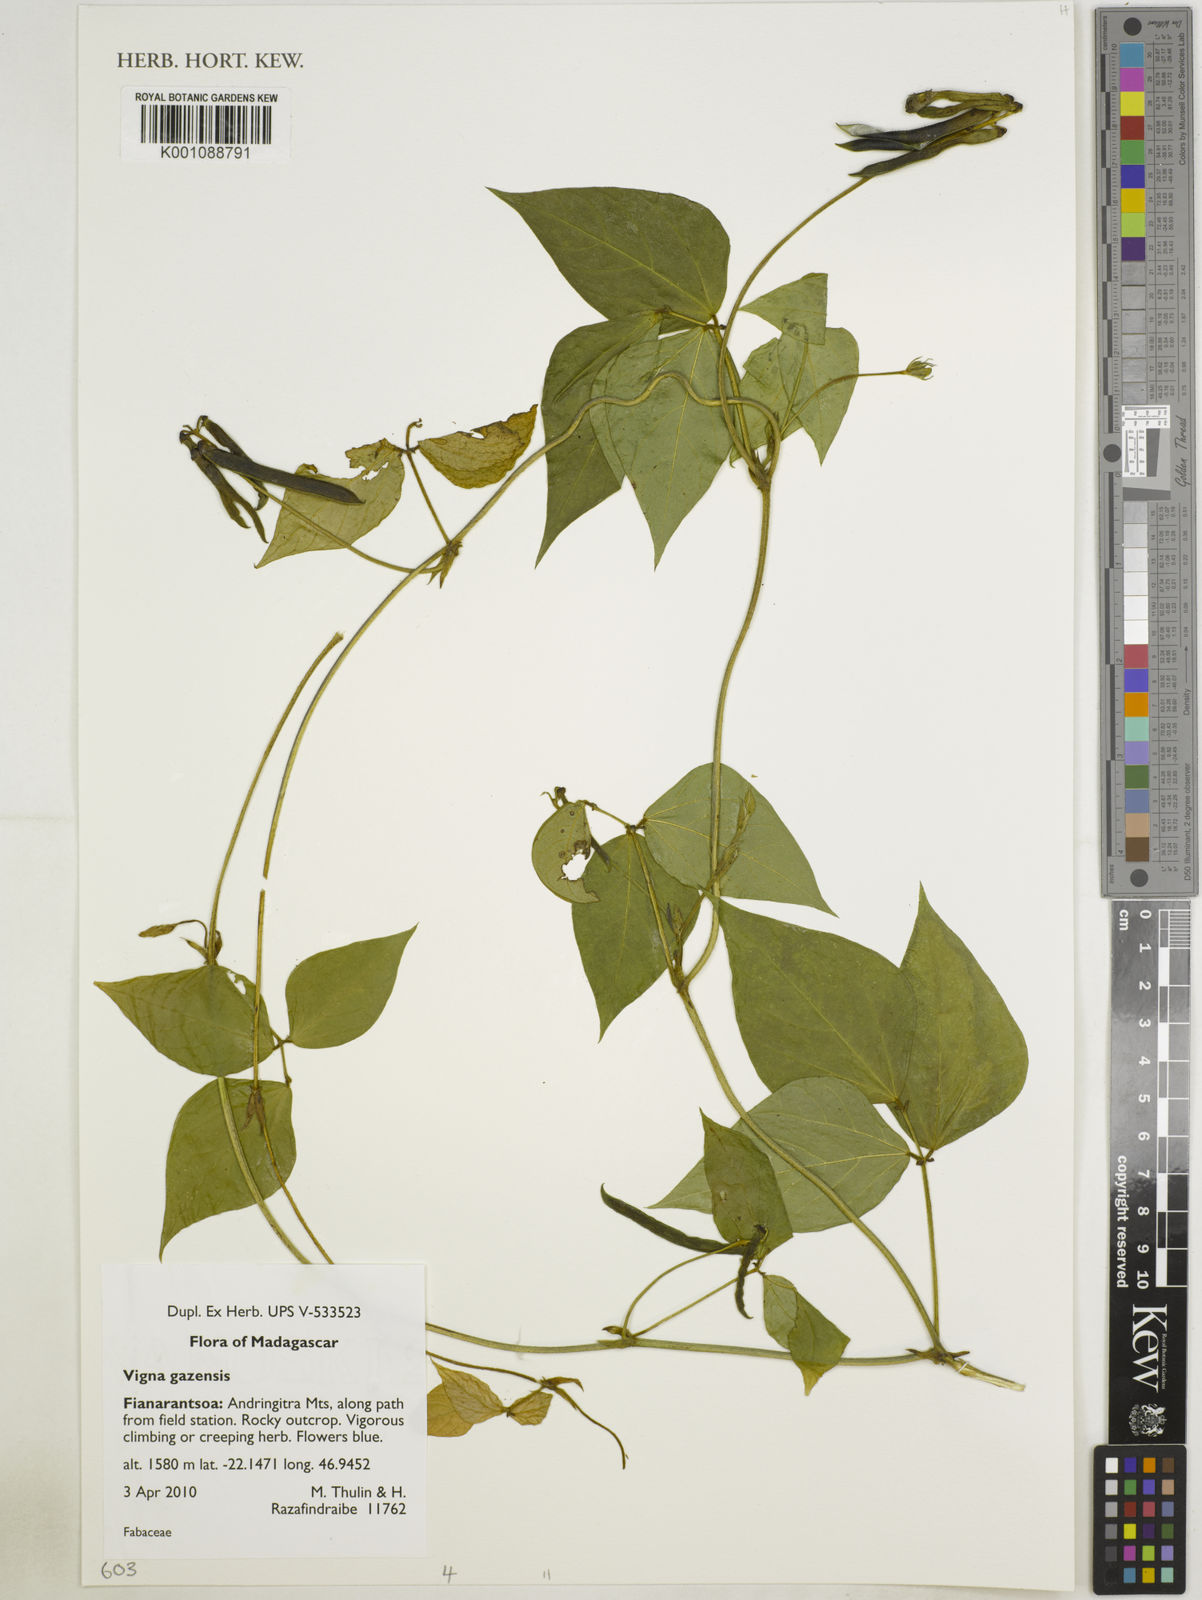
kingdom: Plantae
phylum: Tracheophyta
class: Magnoliopsida
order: Fabales
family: Fabaceae
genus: Vigna
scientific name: Vigna gazensis
